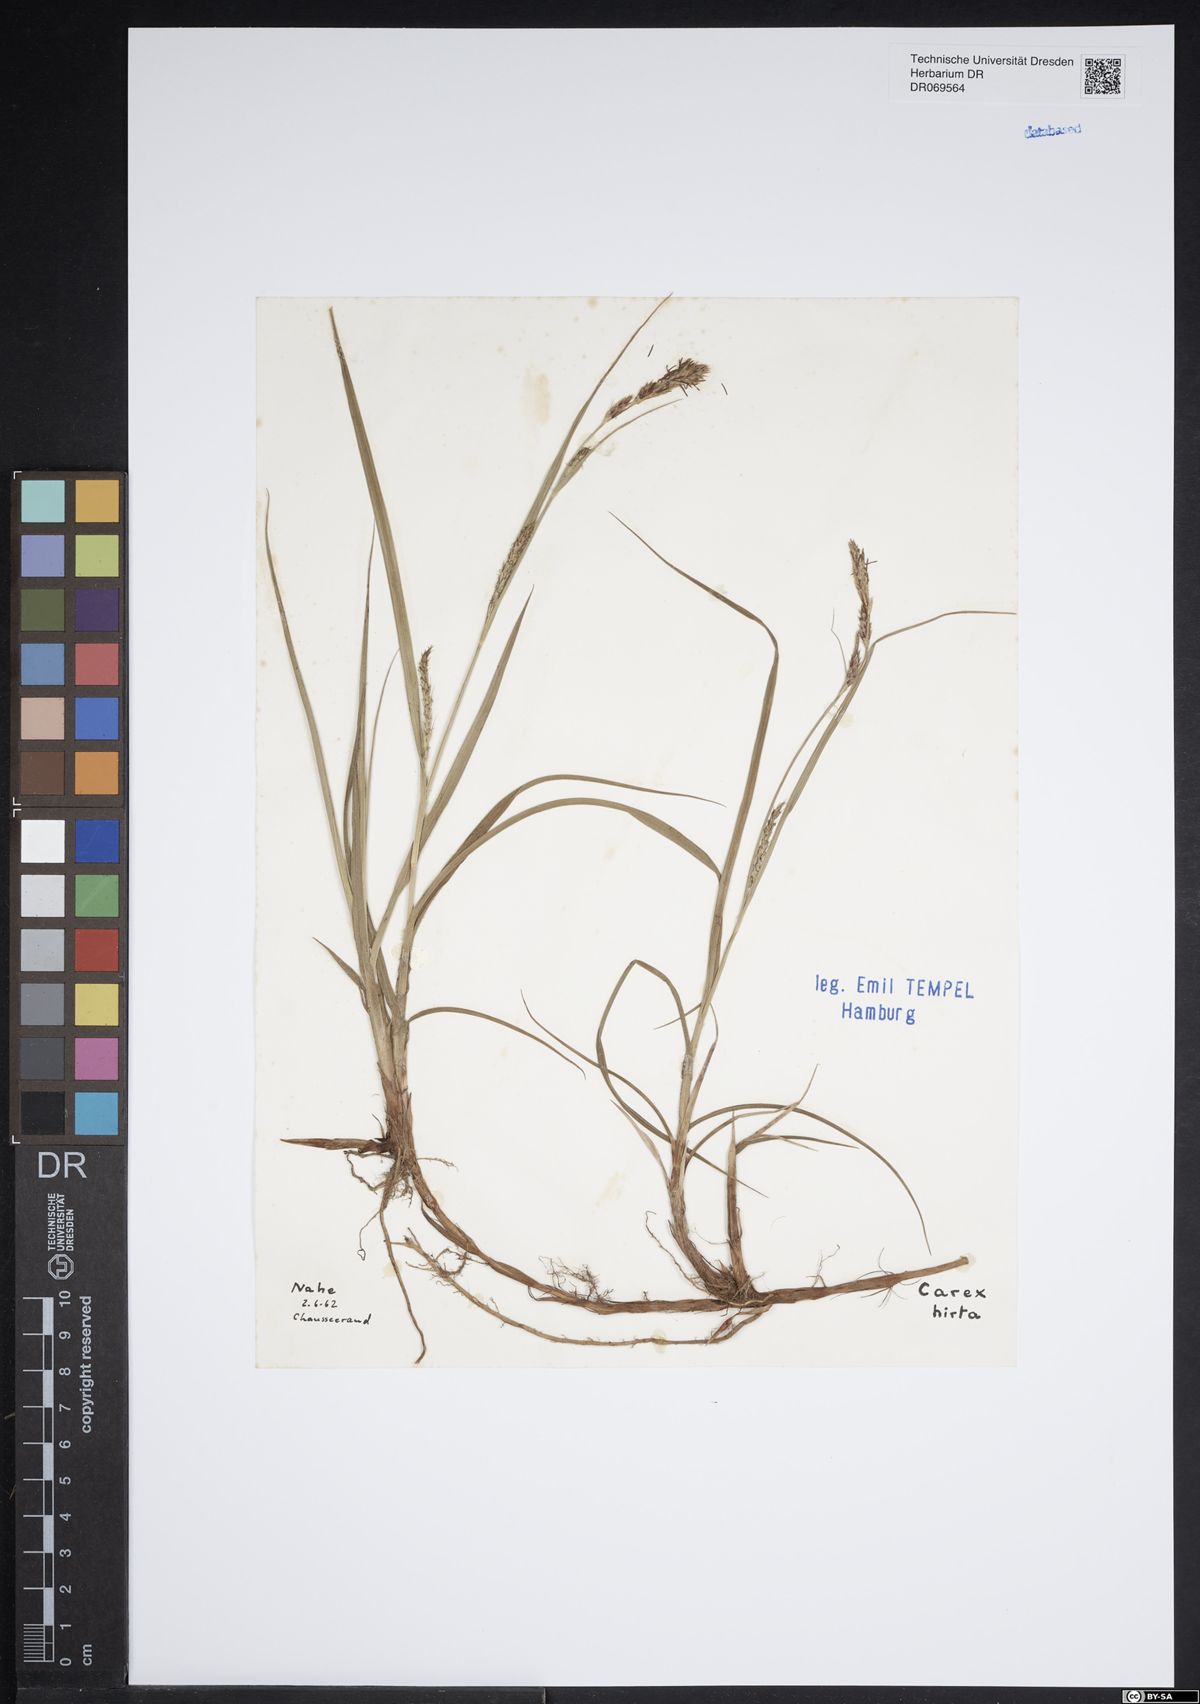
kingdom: Plantae
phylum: Tracheophyta
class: Liliopsida
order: Poales
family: Cyperaceae
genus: Carex
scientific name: Carex hirta
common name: Hairy sedge
